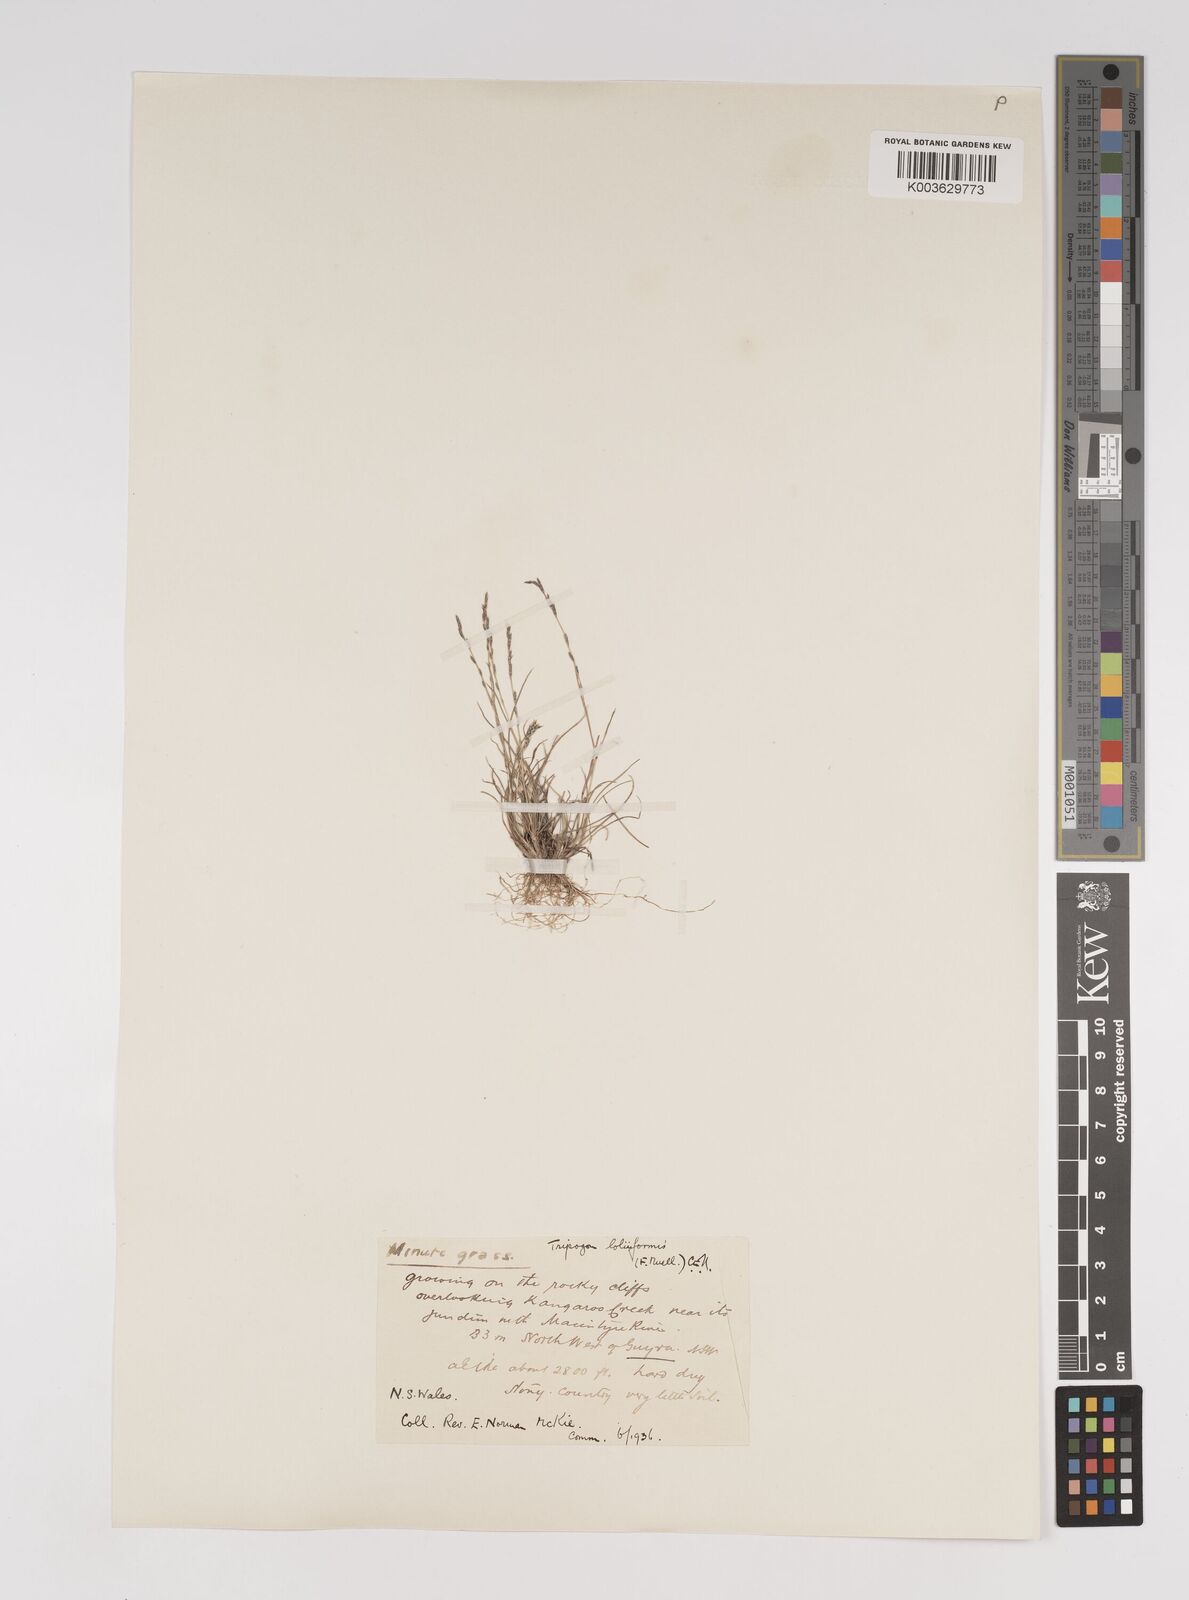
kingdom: Plantae
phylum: Tracheophyta
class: Liliopsida
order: Poales
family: Poaceae
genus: Tripogonella
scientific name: Tripogonella loliiformis
